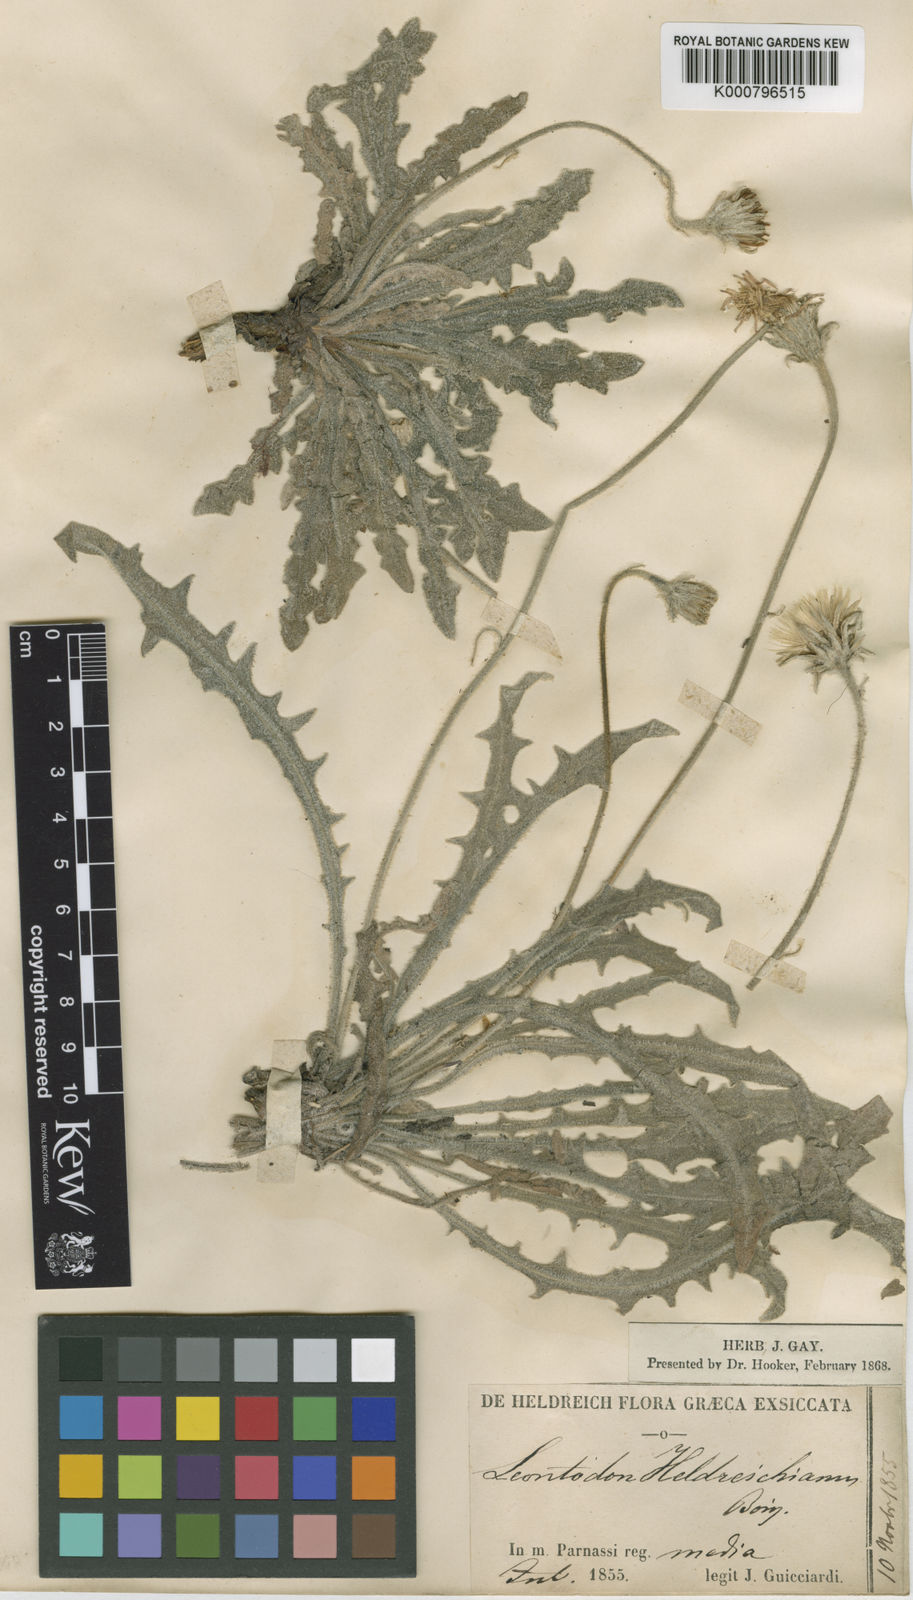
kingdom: Plantae
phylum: Tracheophyta
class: Magnoliopsida
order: Asterales
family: Asteraceae
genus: Leontodon
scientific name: Leontodon crispus
